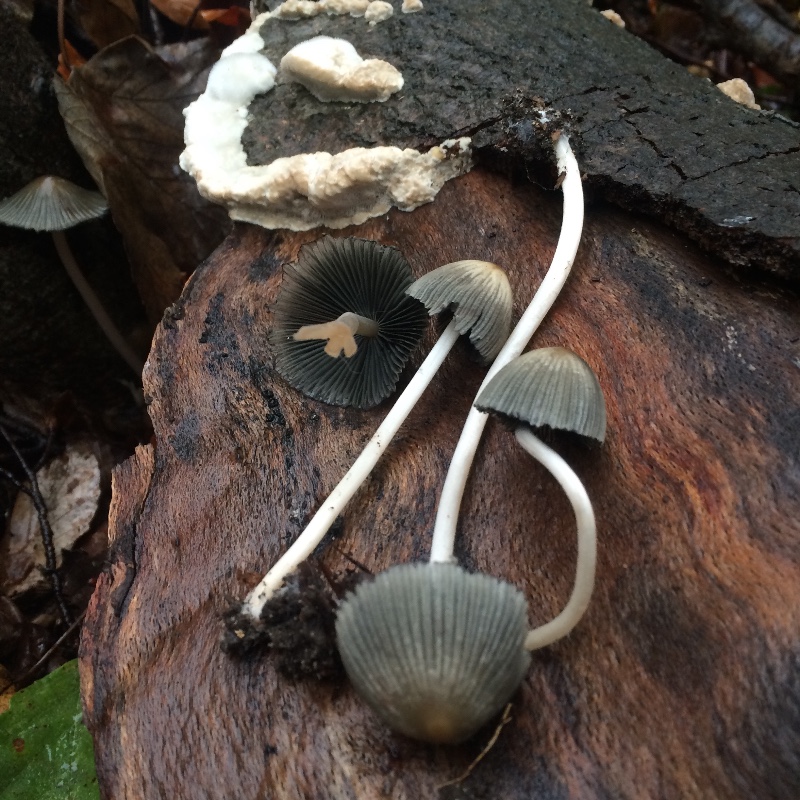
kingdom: Fungi
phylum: Basidiomycota
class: Agaricomycetes
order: Agaricales
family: Psathyrellaceae
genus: Coprinellus
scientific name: Coprinellus
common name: blækhat
